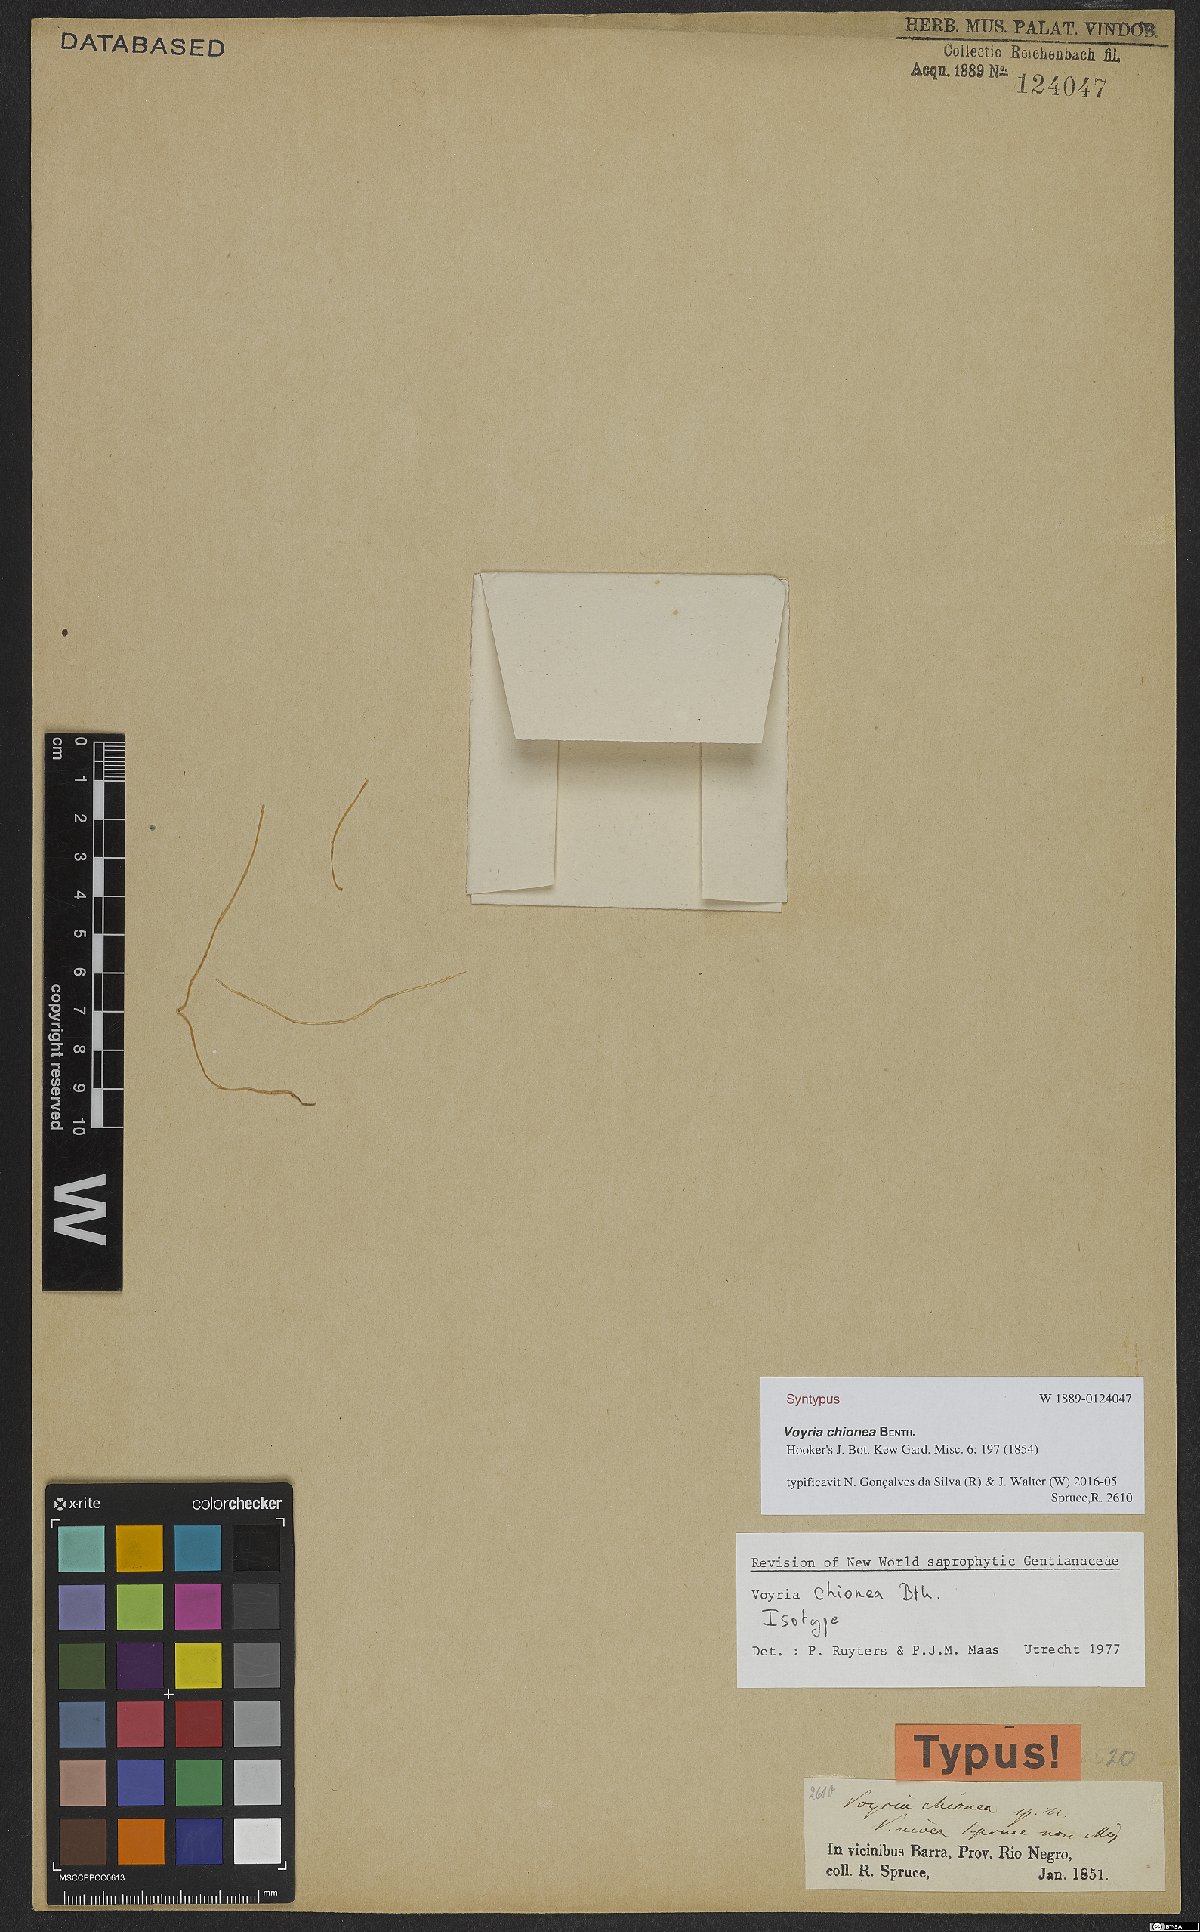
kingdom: Plantae
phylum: Tracheophyta
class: Magnoliopsida
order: Gentianales
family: Gentianaceae
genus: Voyria
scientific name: Voyria chionea
